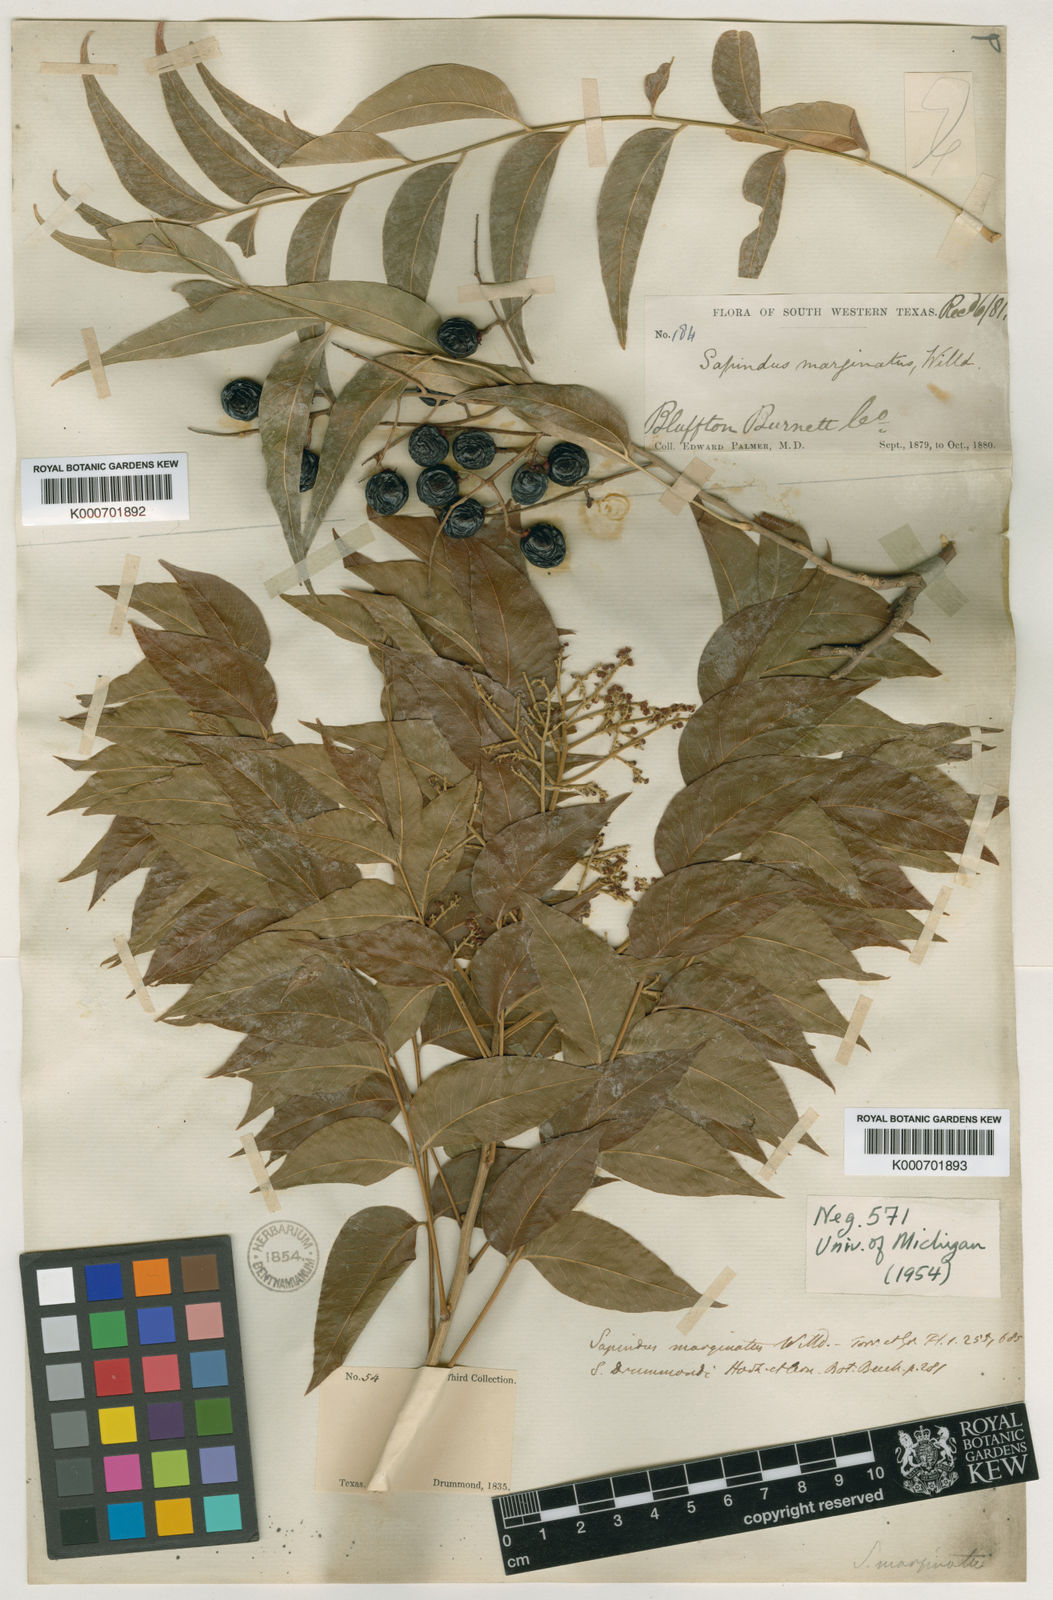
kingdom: Plantae
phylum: Tracheophyta
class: Magnoliopsida
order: Sapindales
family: Sapindaceae
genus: Sapindus
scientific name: Sapindus drummondii
